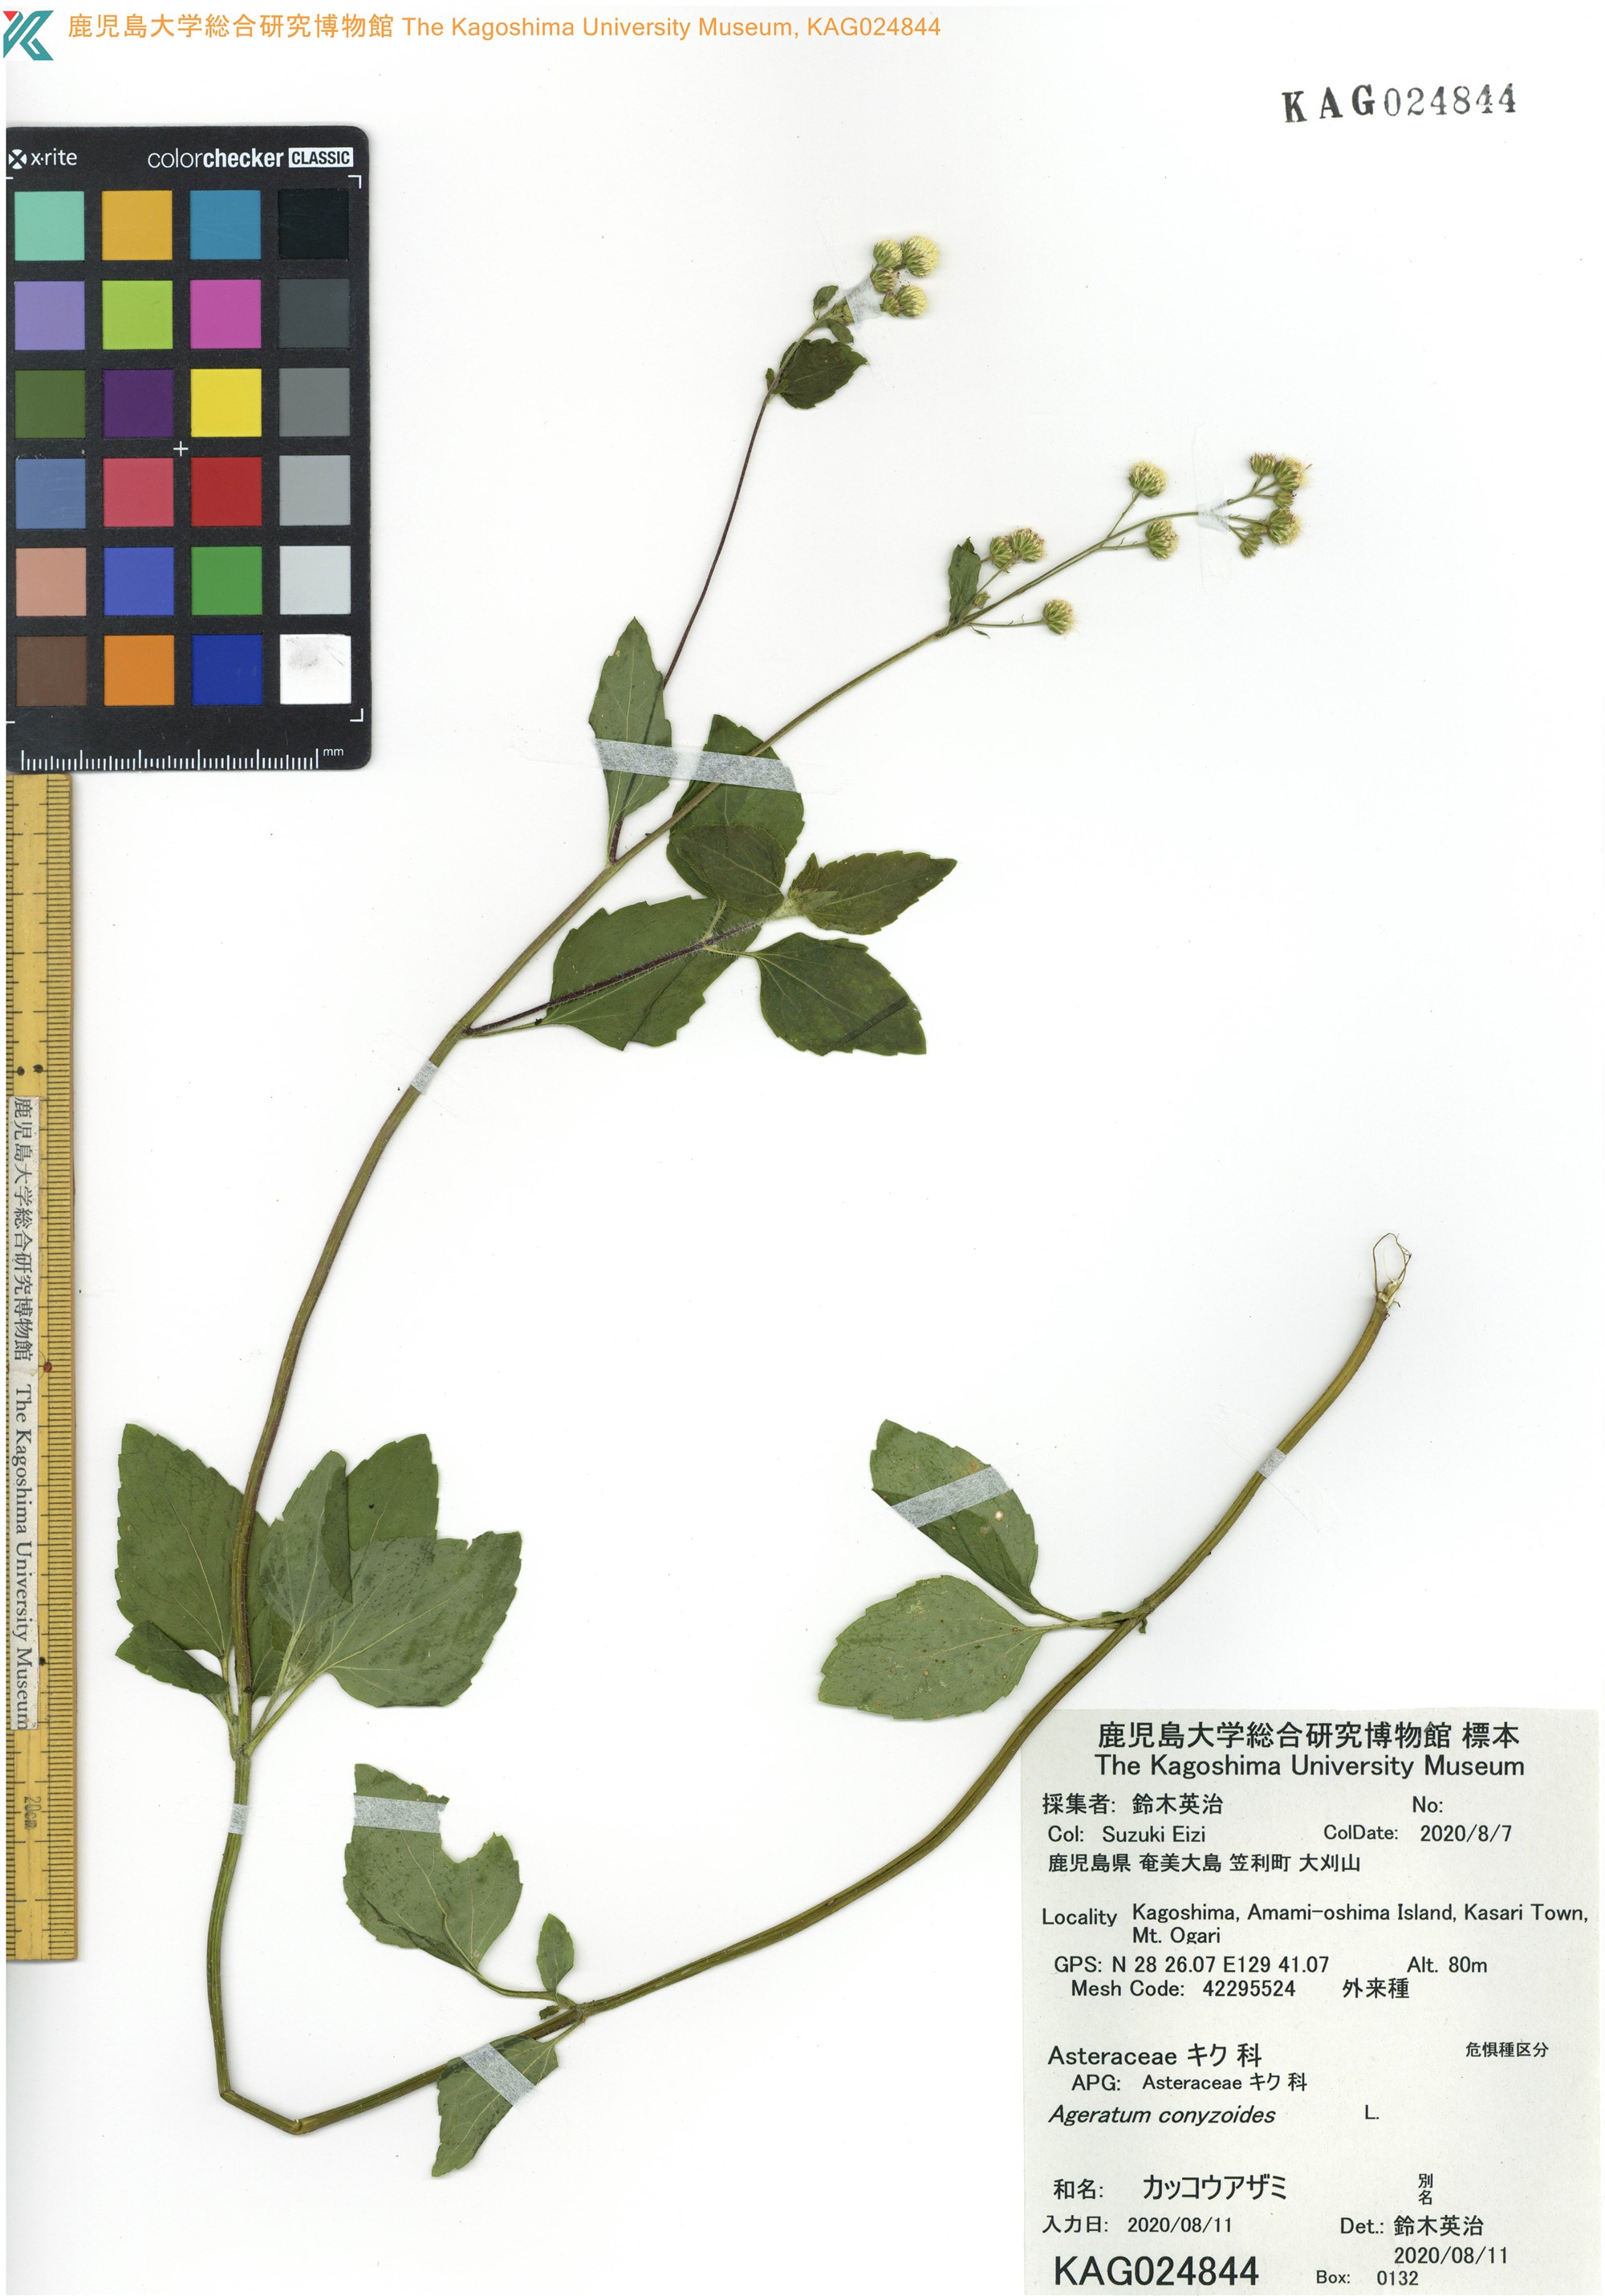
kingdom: Plantae
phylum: Tracheophyta
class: Magnoliopsida
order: Asterales
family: Asteraceae
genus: Ageratum
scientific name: Ageratum conyzoides
